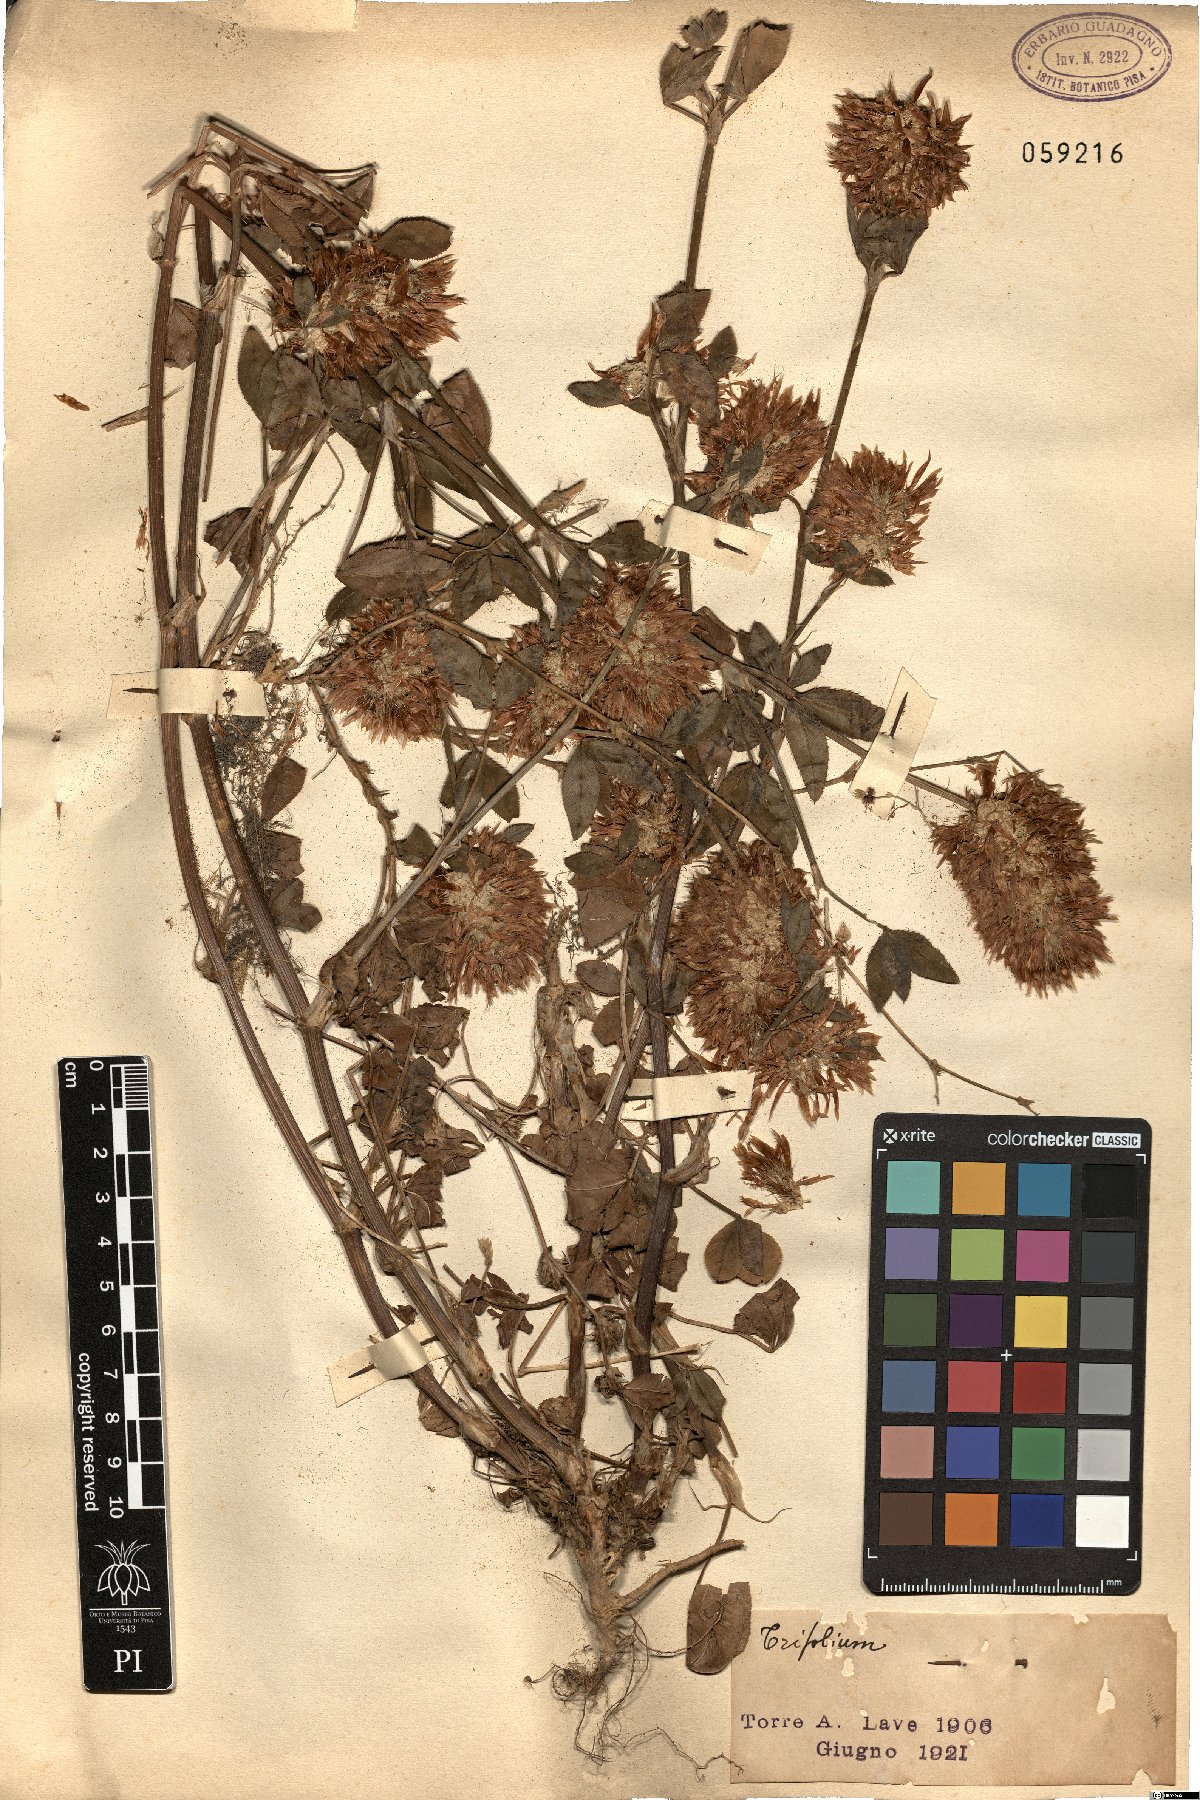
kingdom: Plantae
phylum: Tracheophyta
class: Magnoliopsida
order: Fabales
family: Fabaceae
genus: Trifolium
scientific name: Trifolium
